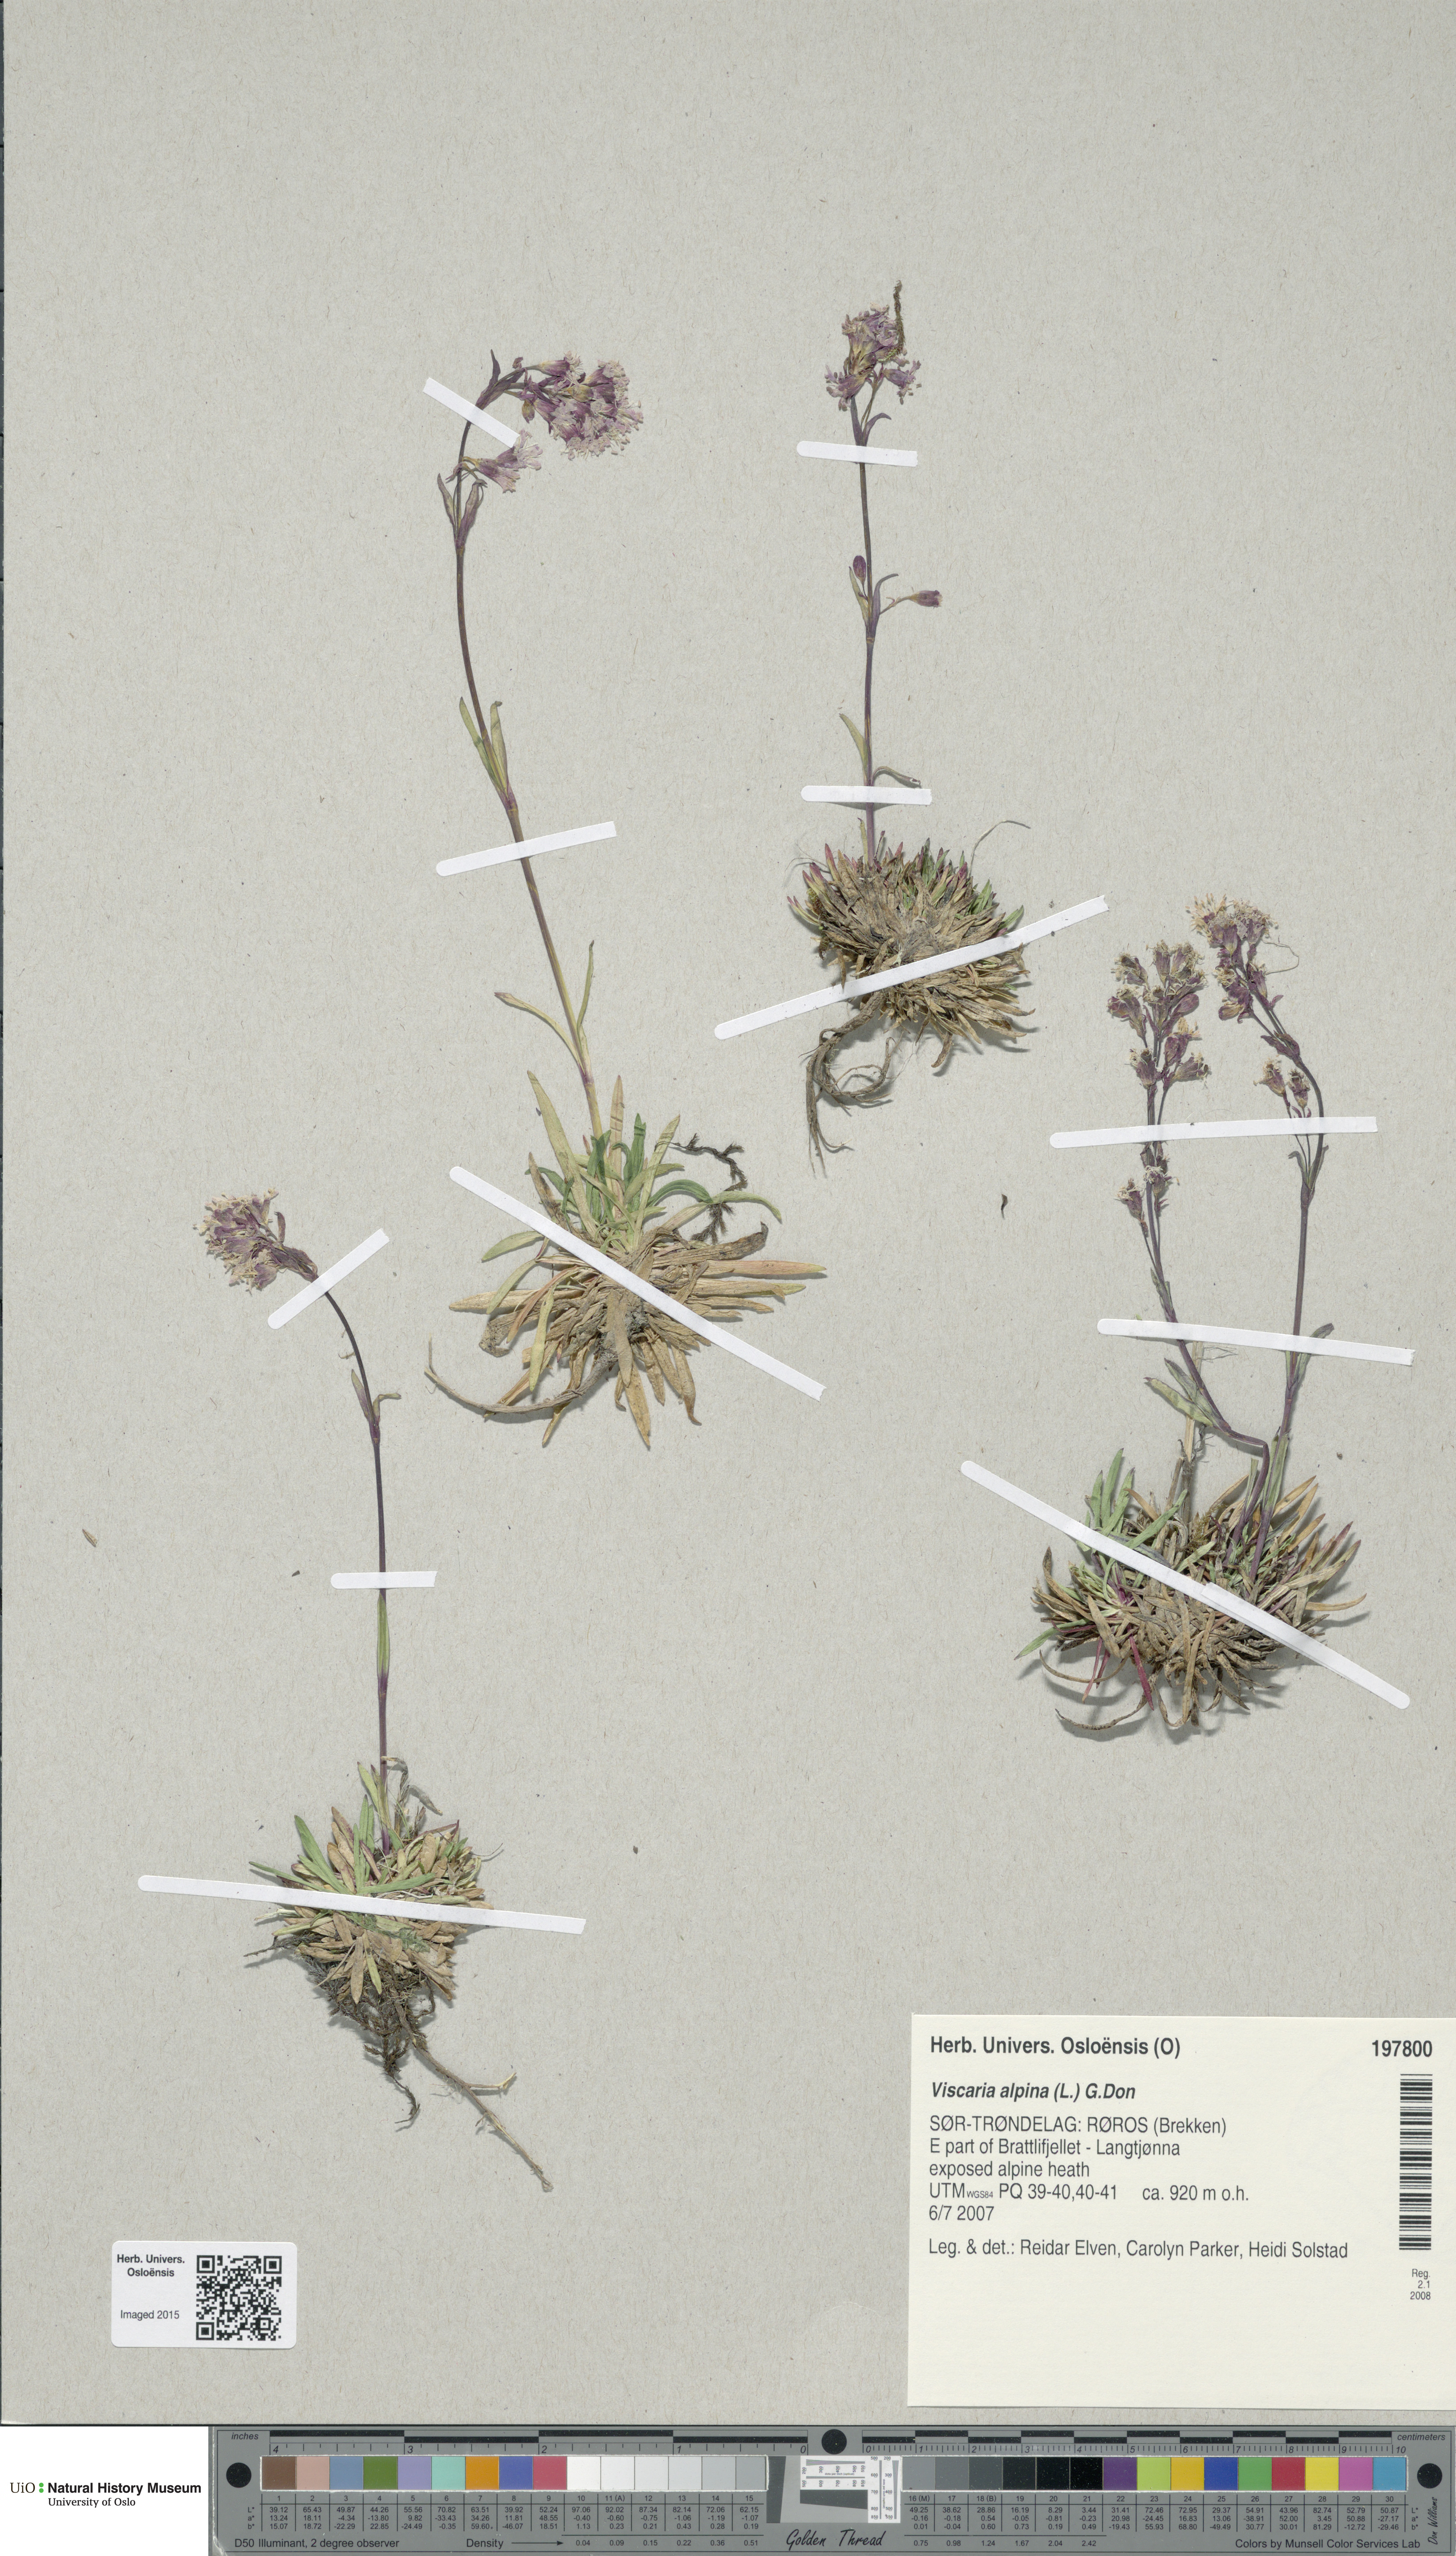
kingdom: Plantae
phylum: Tracheophyta
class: Magnoliopsida
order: Caryophyllales
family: Caryophyllaceae
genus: Viscaria
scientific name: Viscaria alpina
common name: Alpine campion
